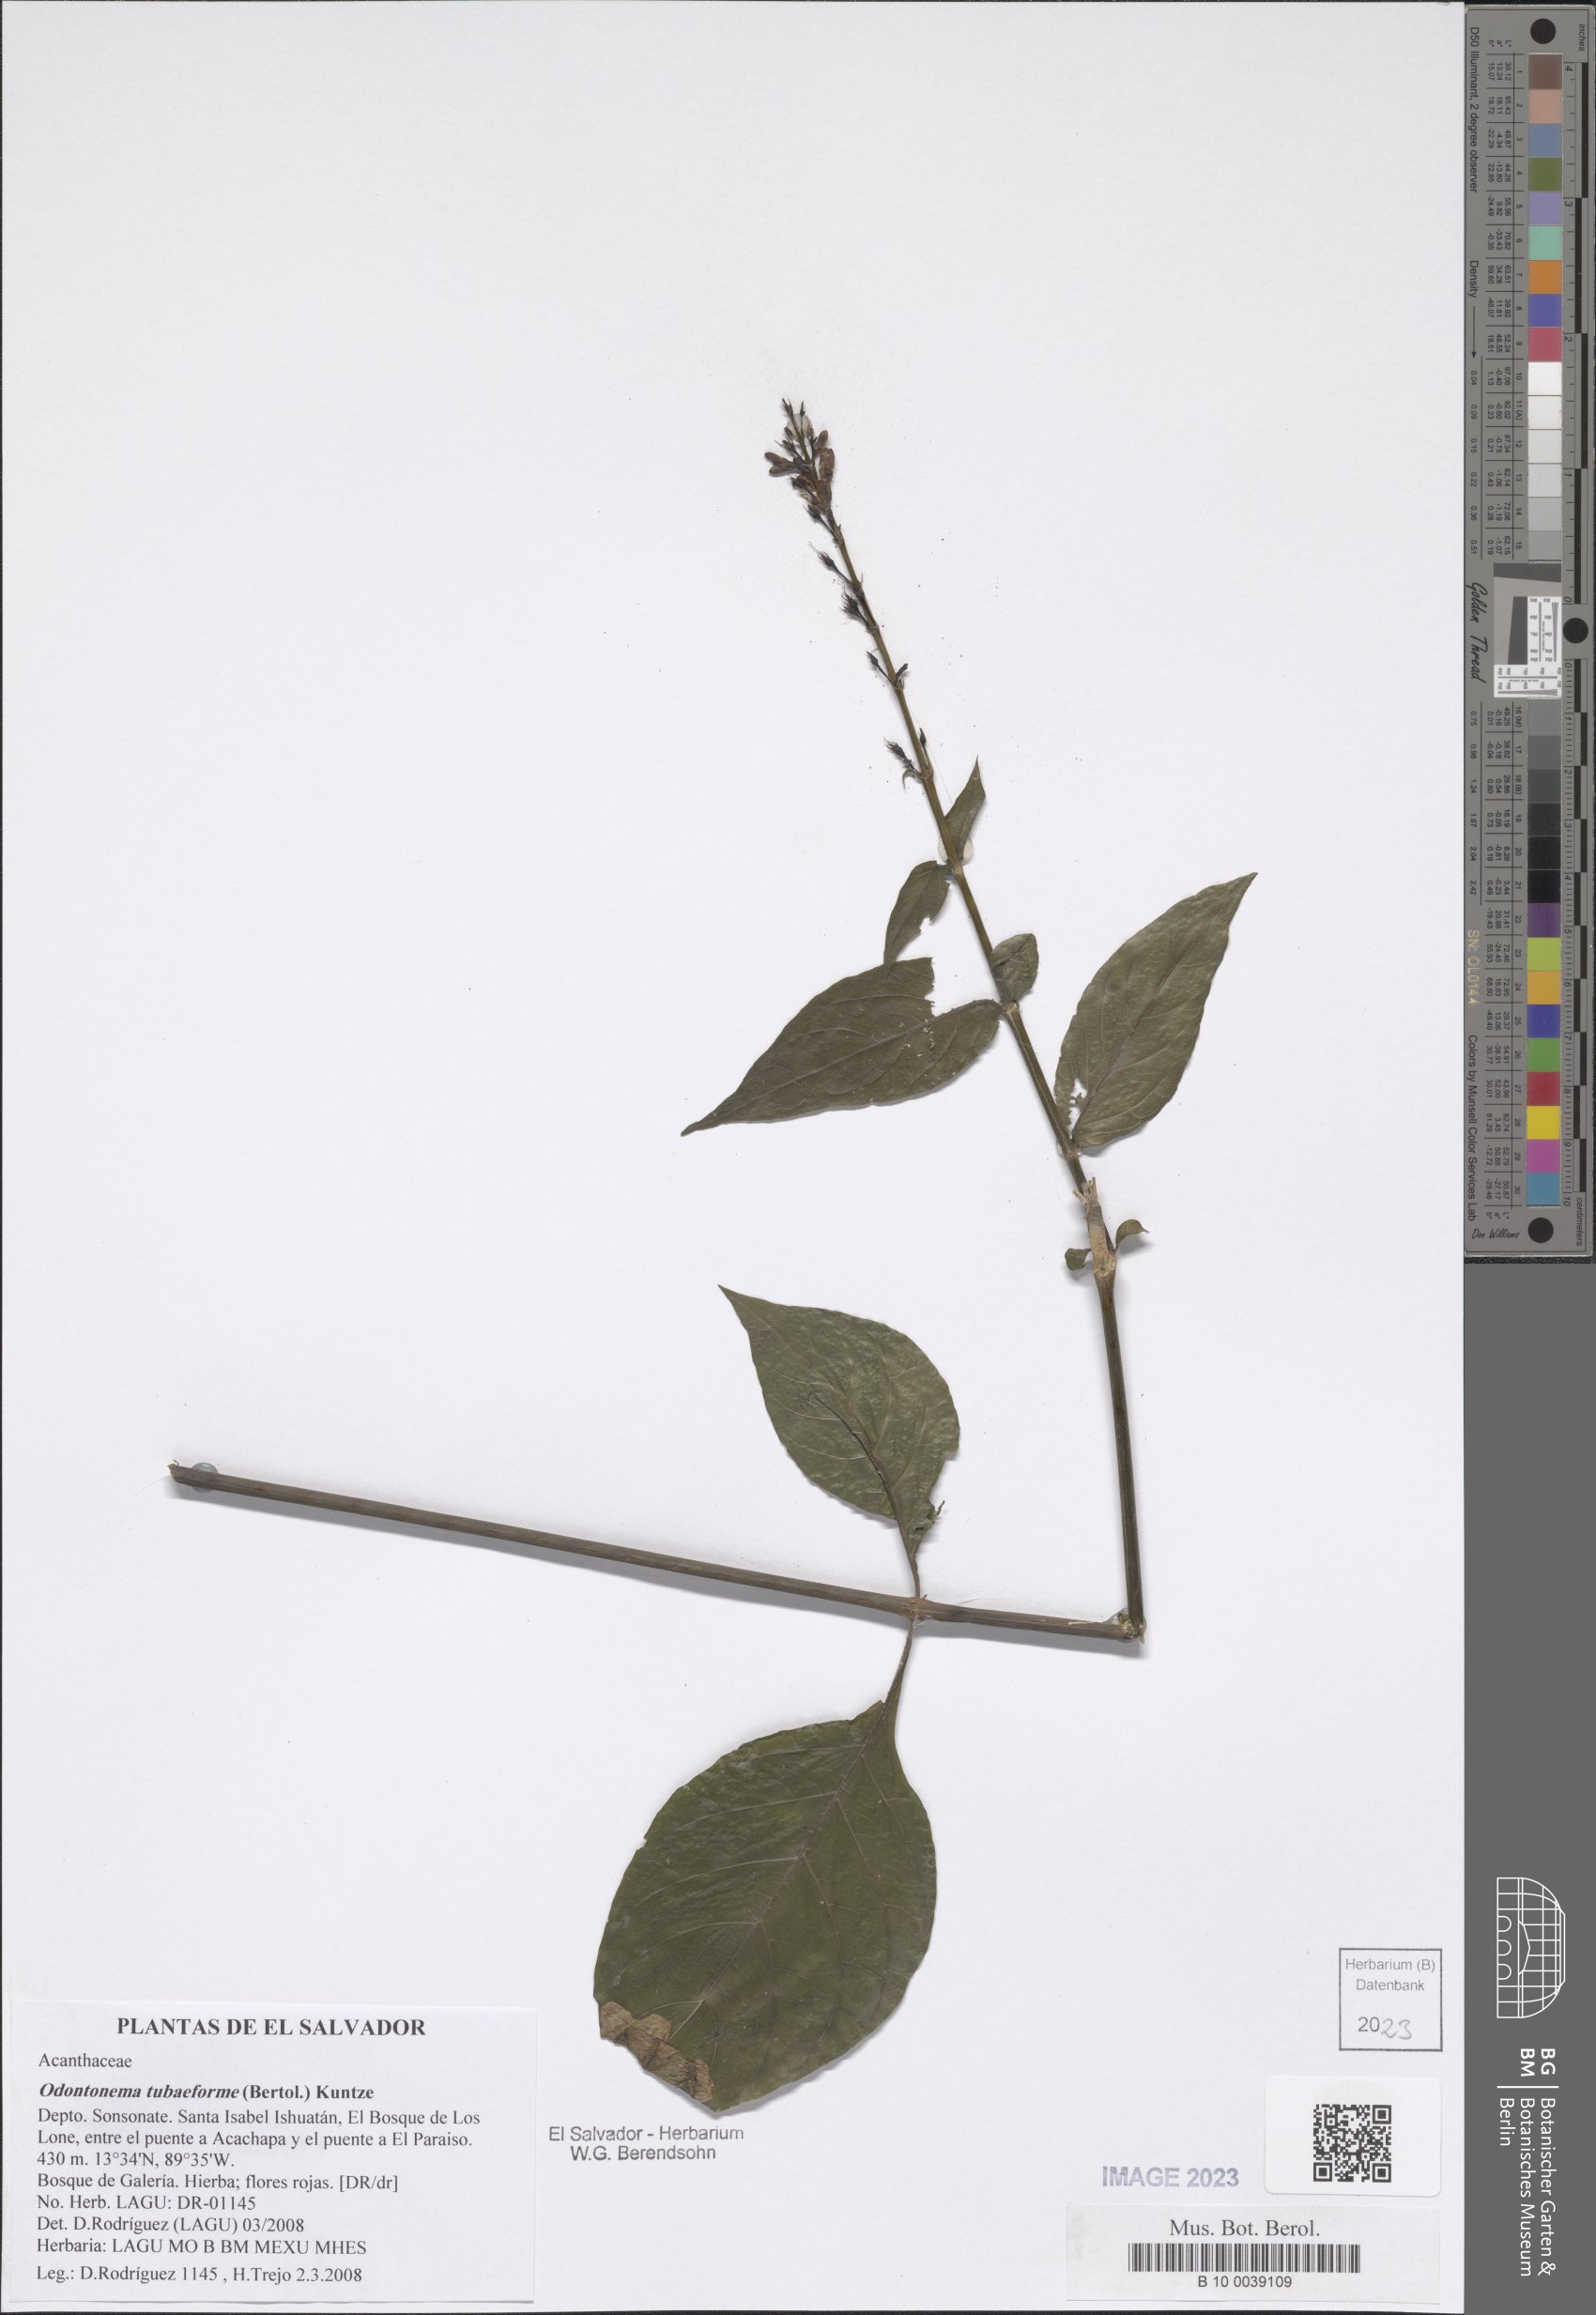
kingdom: Plantae
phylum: Tracheophyta
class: Magnoliopsida
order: Lamiales
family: Acanthaceae
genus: Odontonema
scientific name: Odontonema tubaeforme
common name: Firespike
